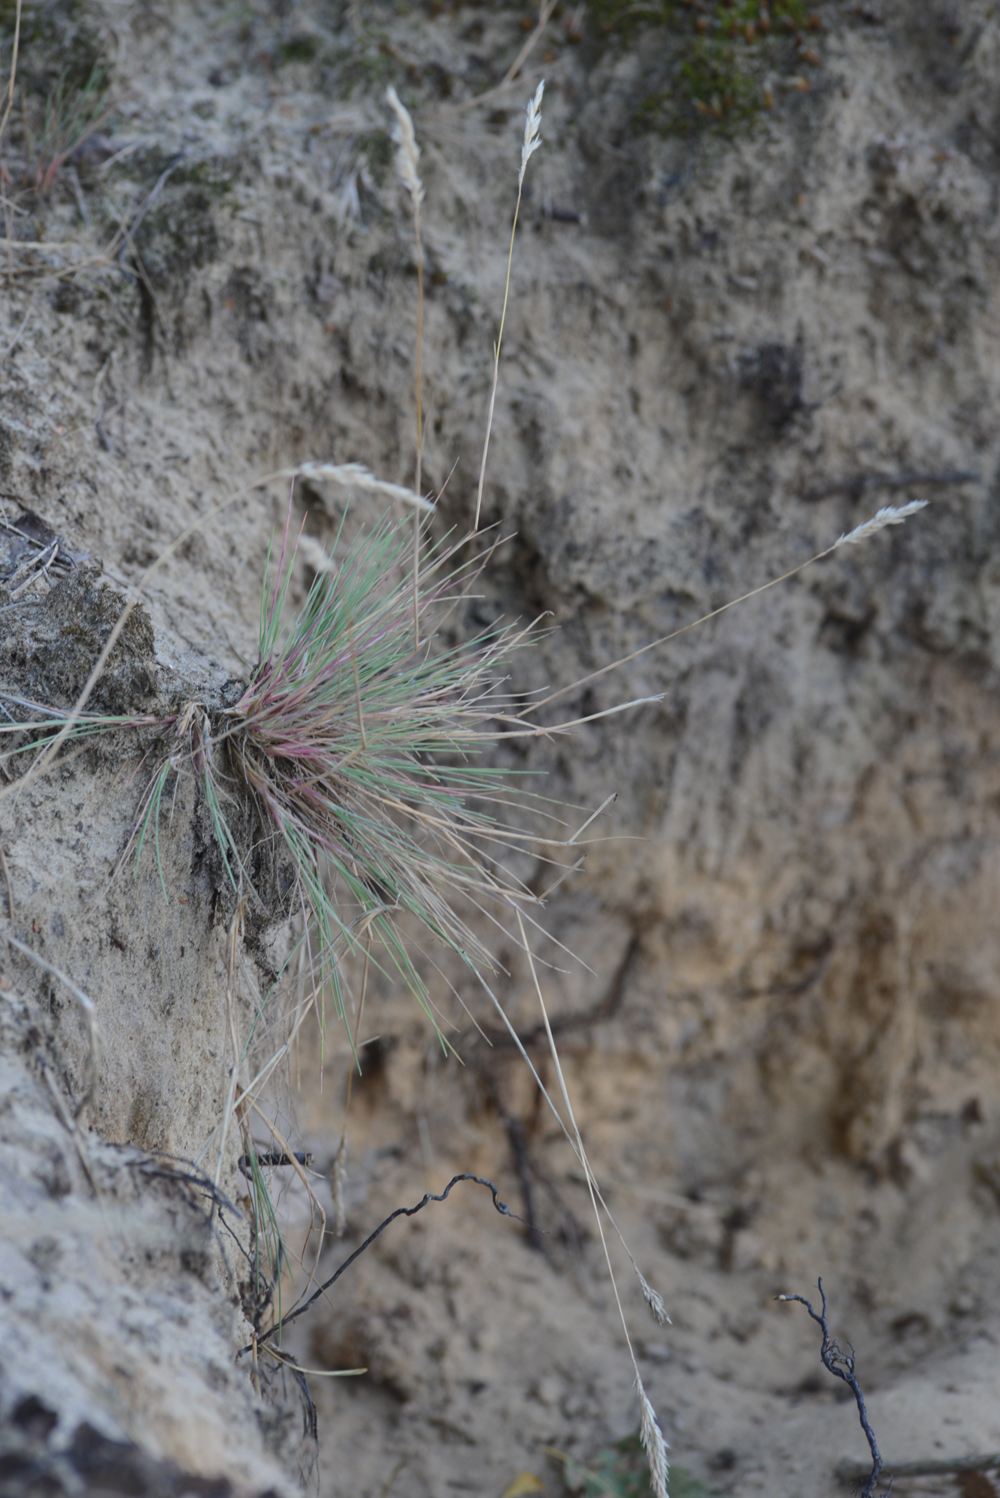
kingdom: Plantae
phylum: Tracheophyta
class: Liliopsida
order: Poales
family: Poaceae
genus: Corynephorus
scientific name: Corynephorus canescens
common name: Grey hair-grass
